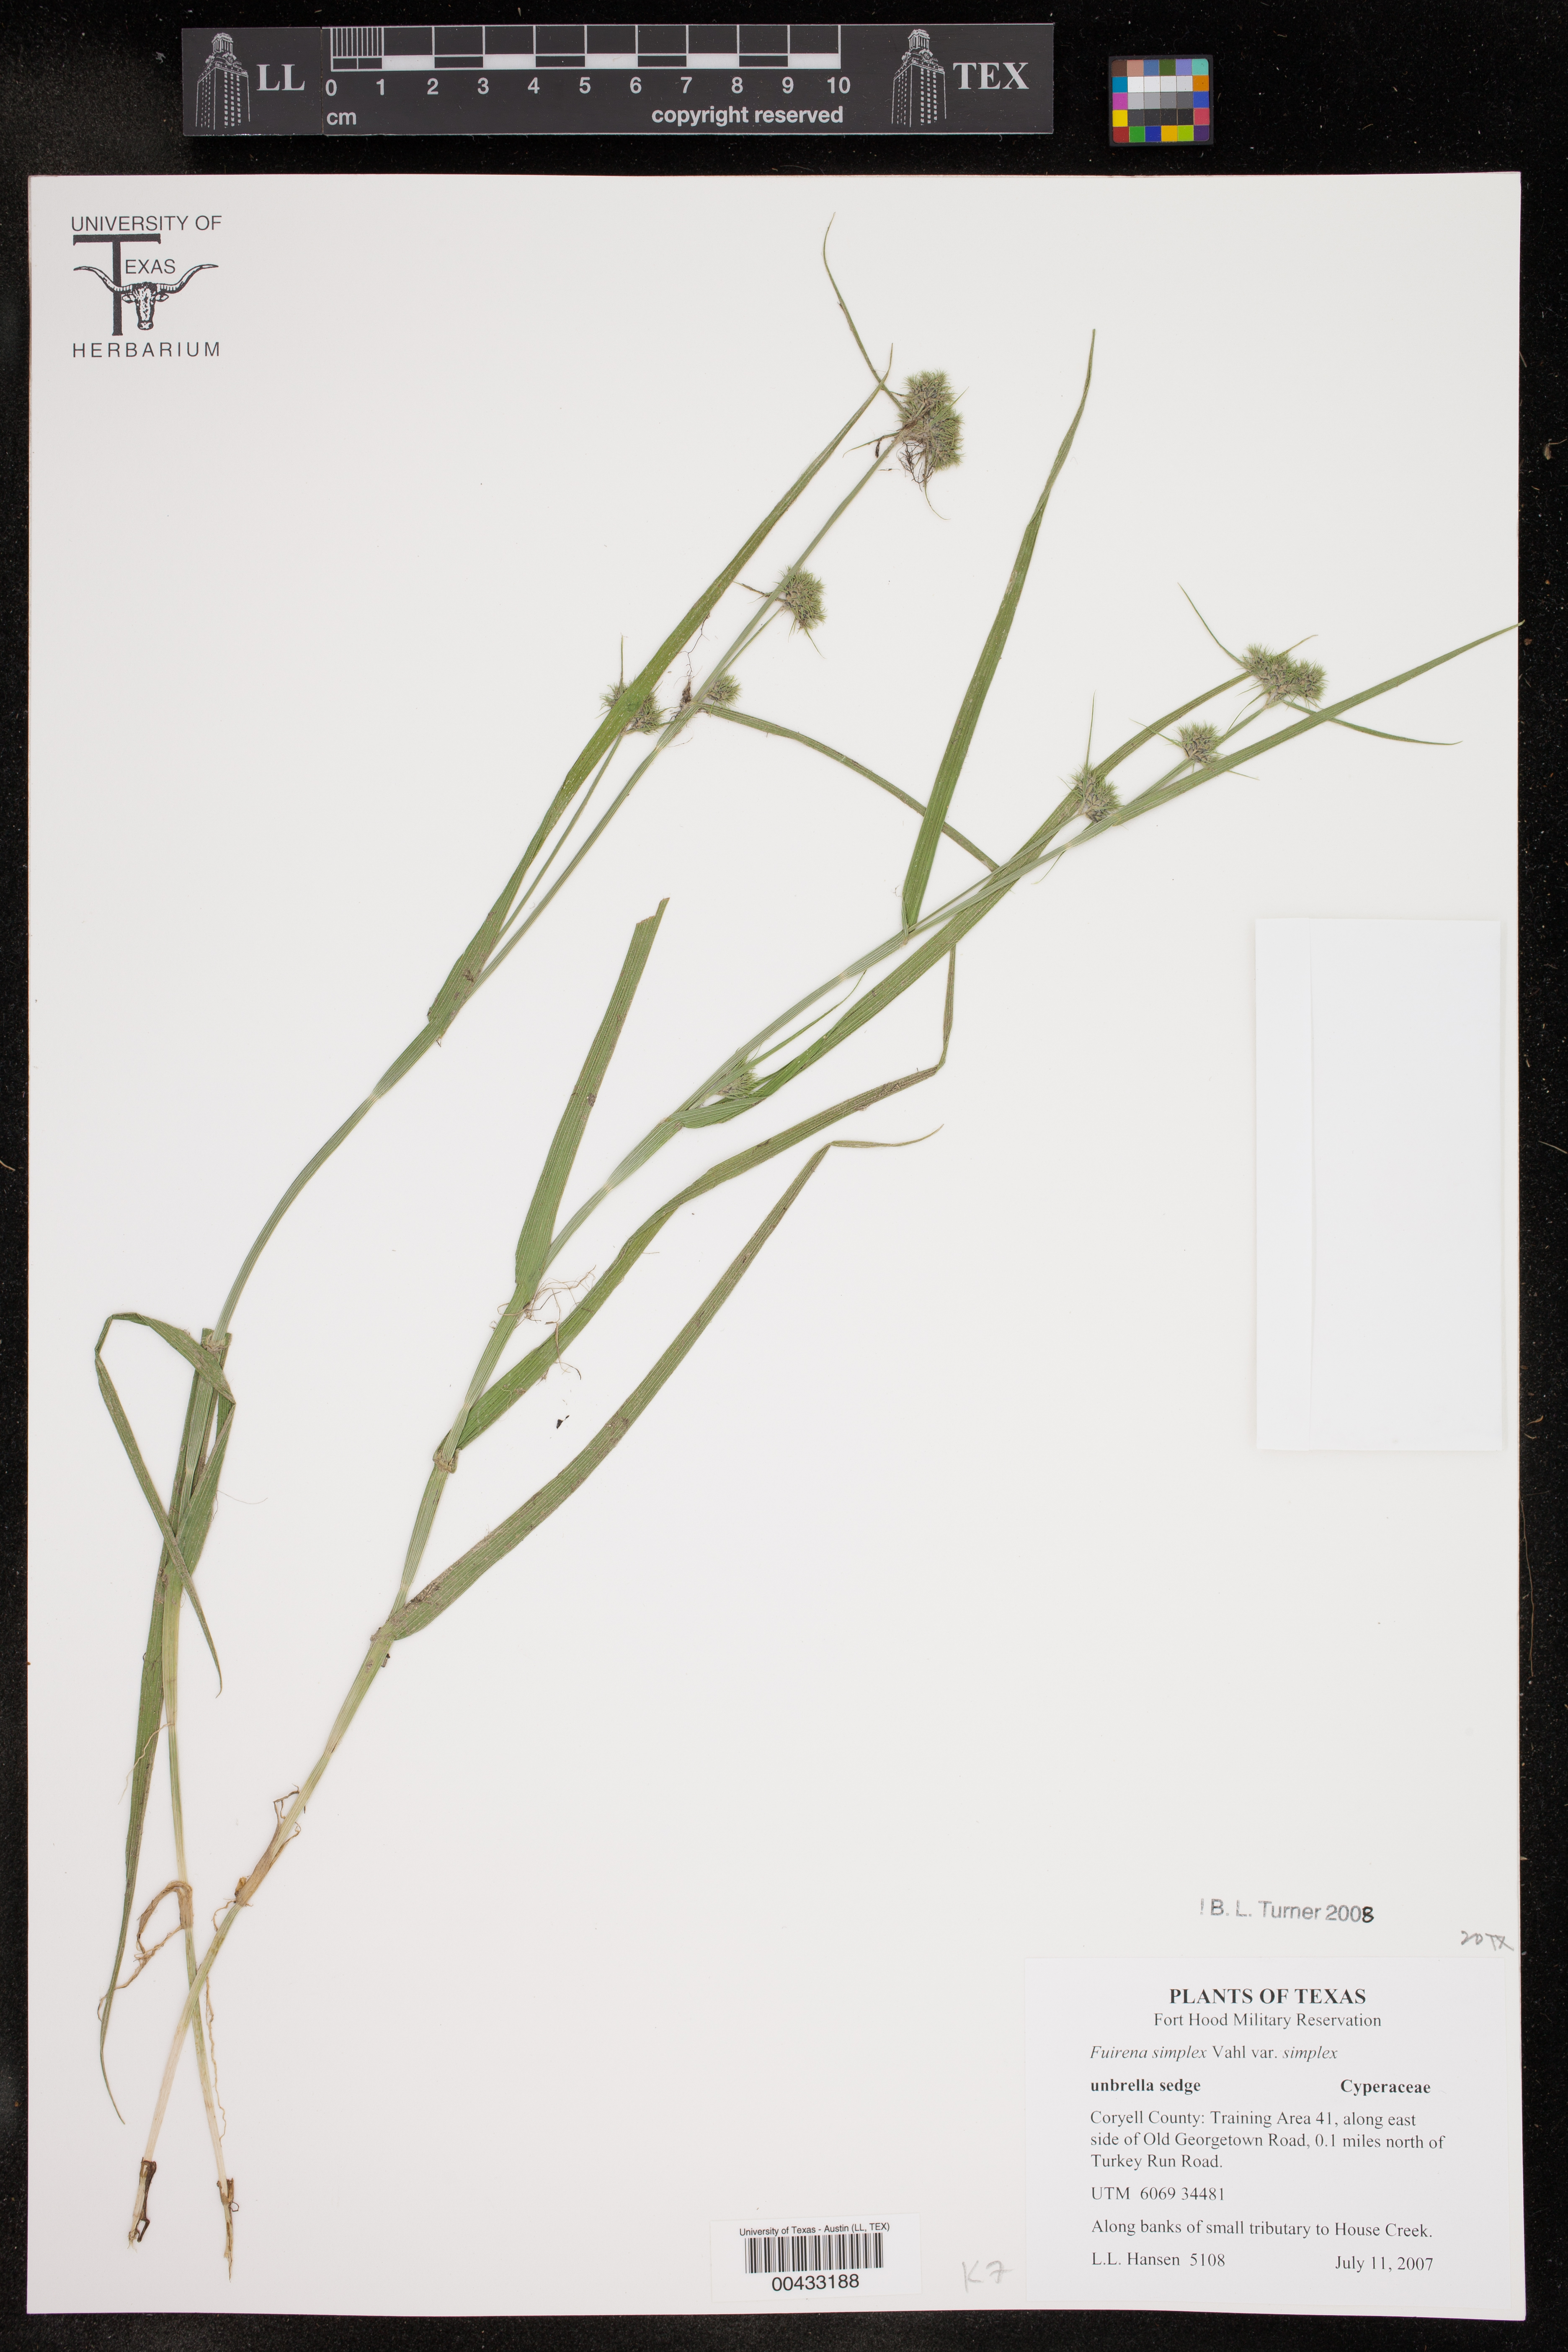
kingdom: Plantae
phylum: Tracheophyta
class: Liliopsida
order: Poales
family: Cyperaceae
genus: Fuirena
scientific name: Fuirena simplex
